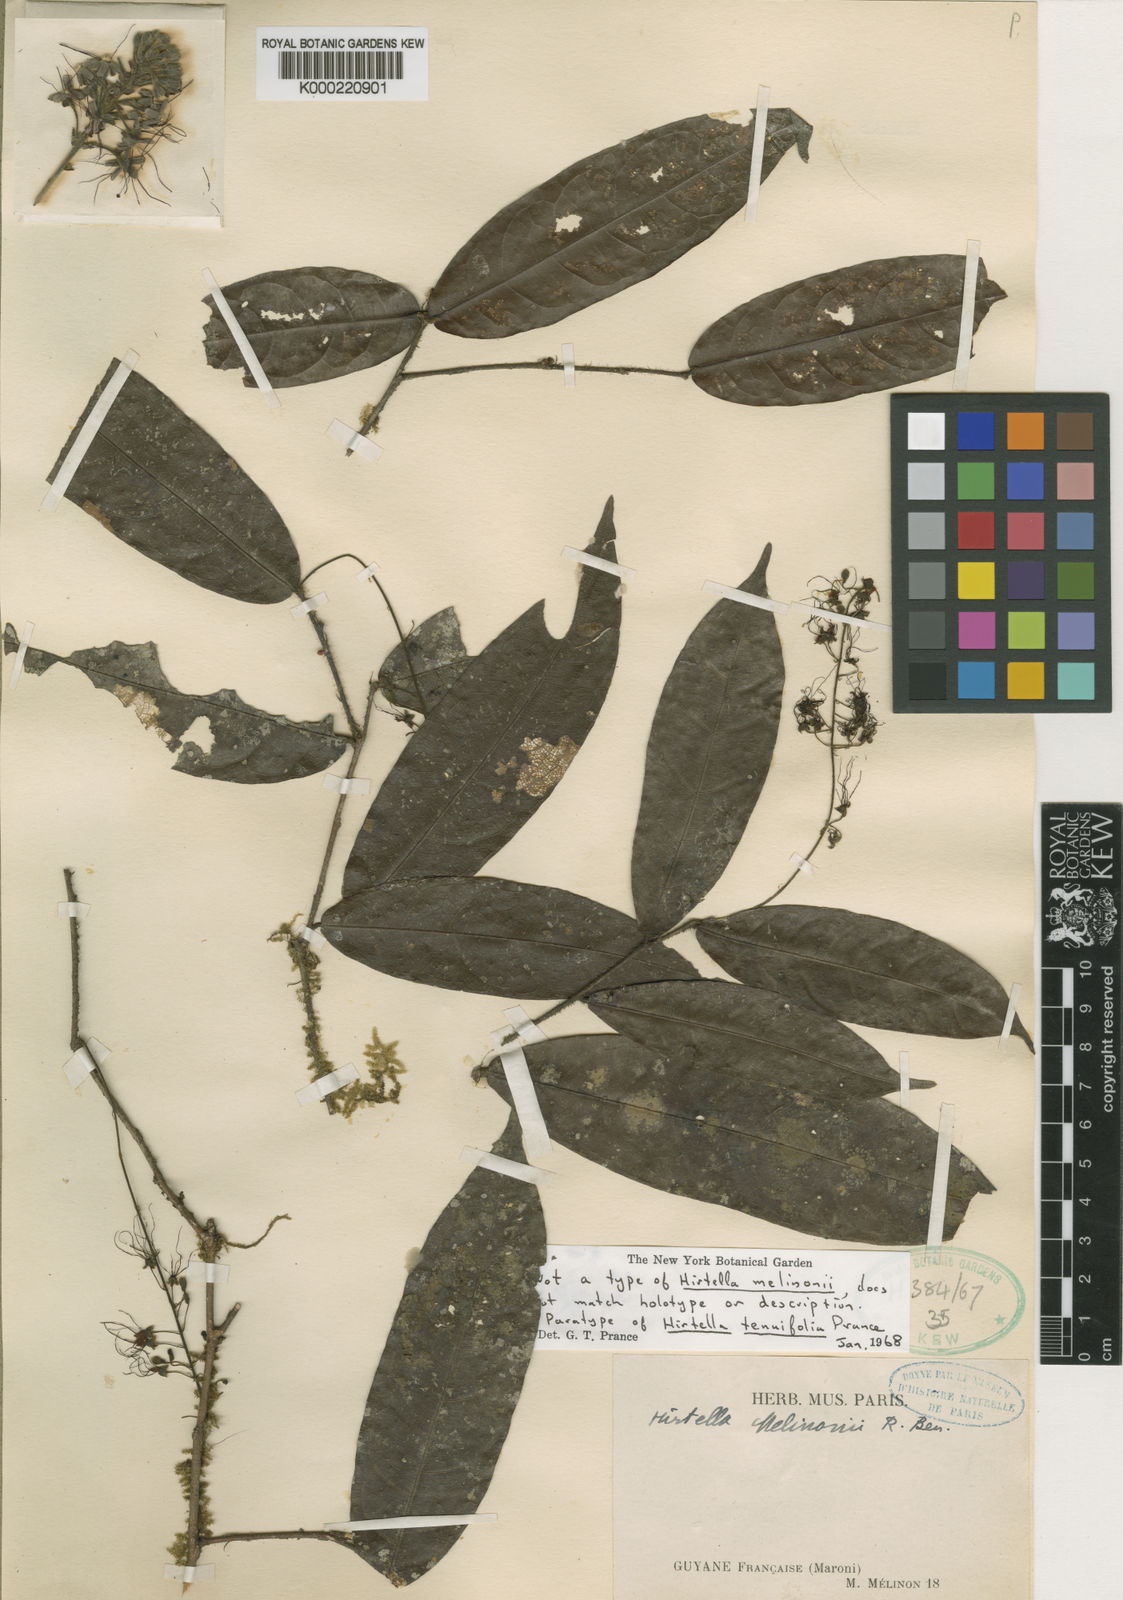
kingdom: Plantae
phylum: Tracheophyta
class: Magnoliopsida
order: Malpighiales
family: Chrysobalanaceae
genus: Hirtella
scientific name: Hirtella silicea
